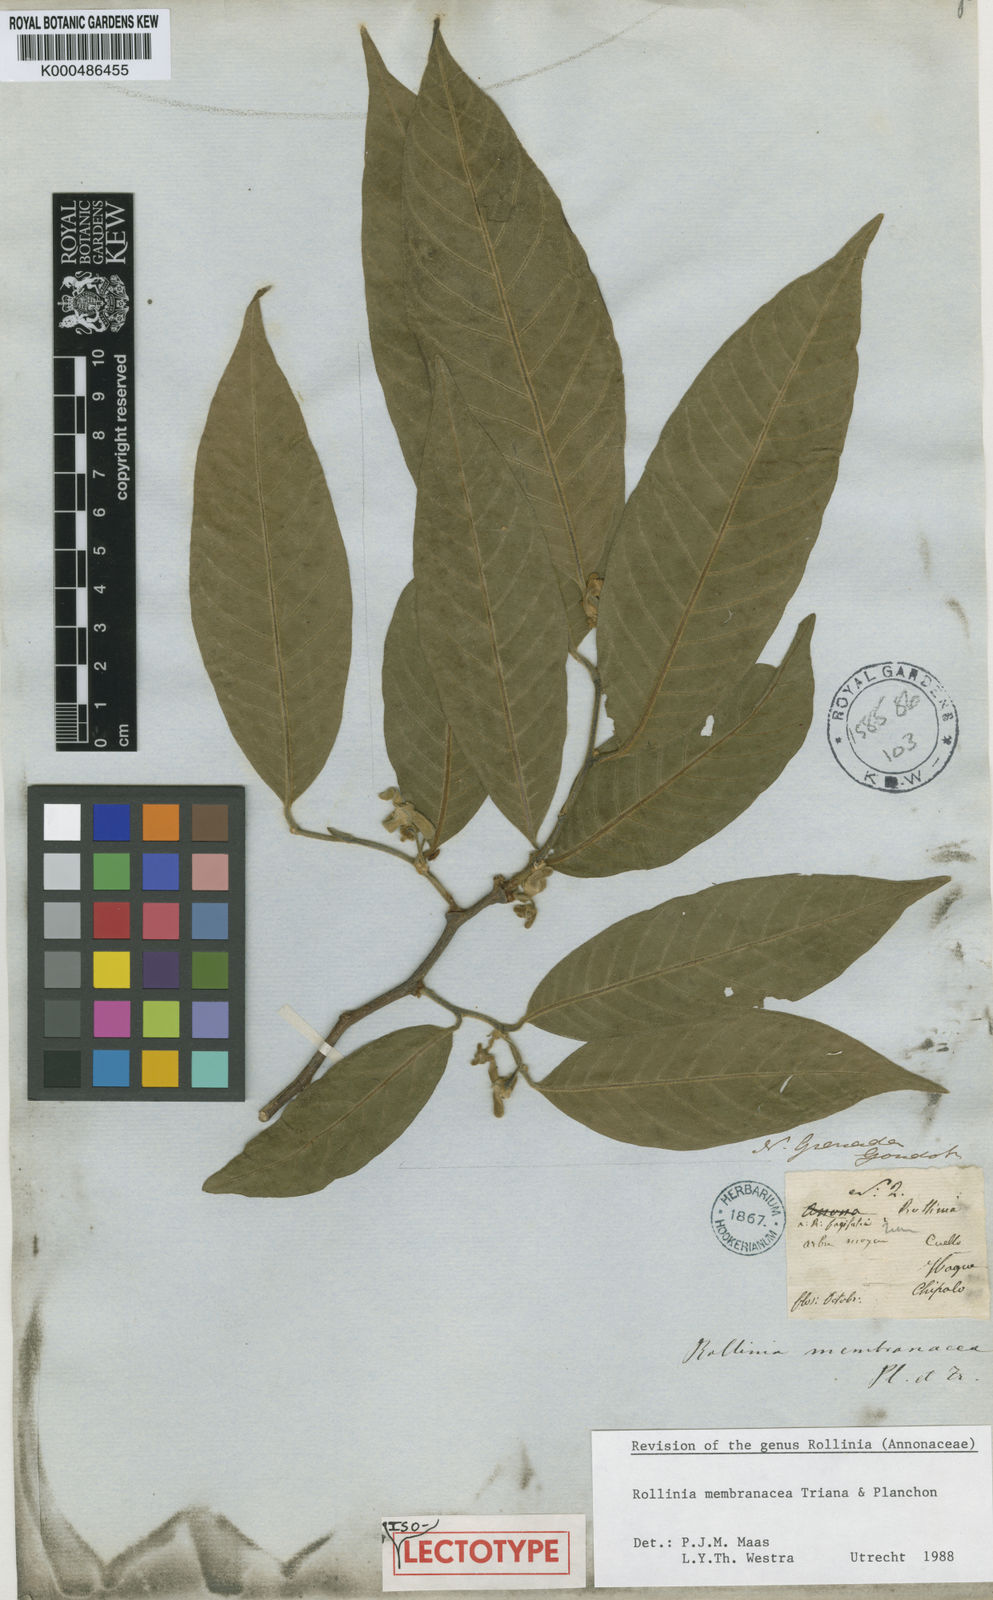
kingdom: Plantae
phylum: Tracheophyta
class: Magnoliopsida
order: Magnoliales
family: Annonaceae
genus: Annona
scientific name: Annona rensoniana
